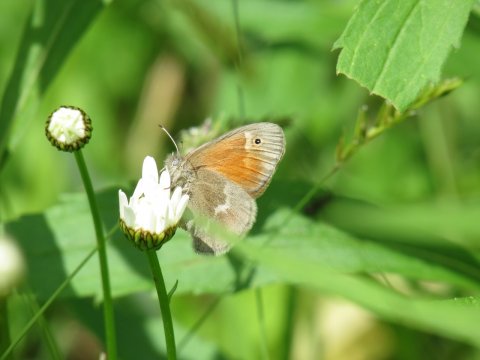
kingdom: Animalia
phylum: Arthropoda
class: Insecta
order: Lepidoptera
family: Nymphalidae
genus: Coenonympha
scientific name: Coenonympha tullia
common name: Large Heath
